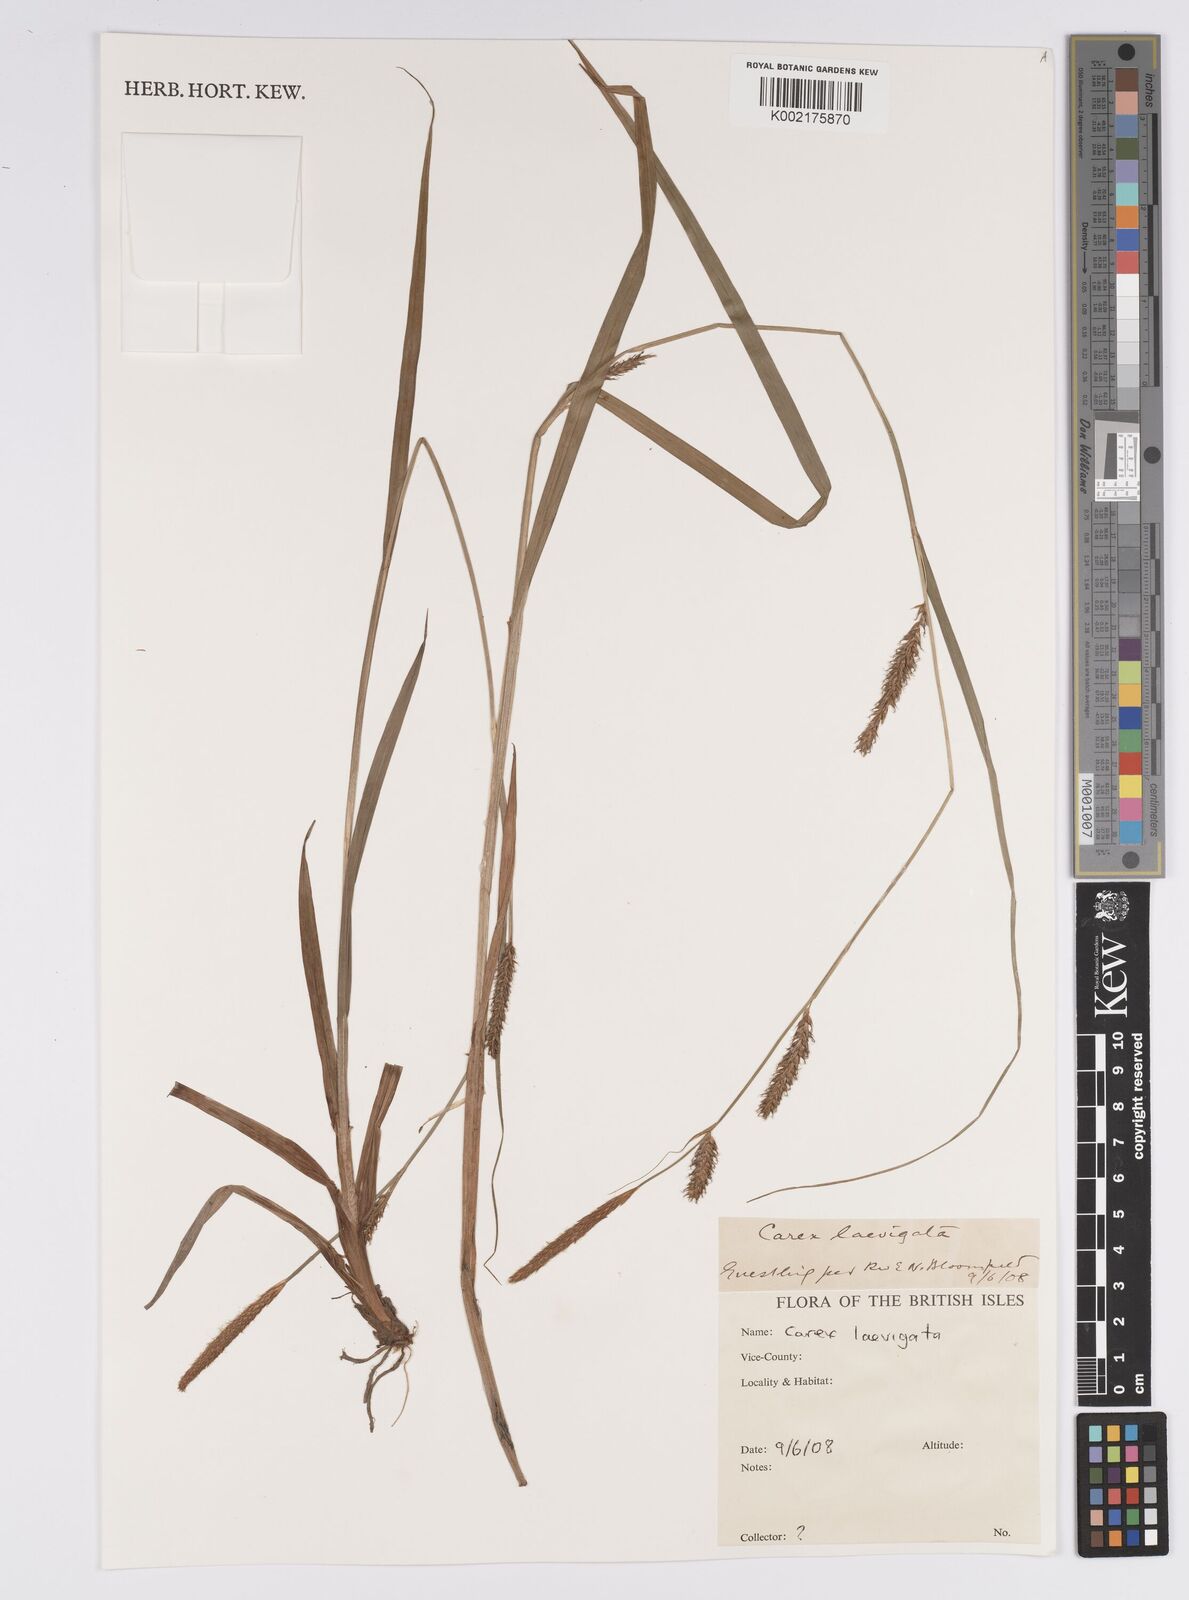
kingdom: Plantae
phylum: Tracheophyta
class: Liliopsida
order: Poales
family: Cyperaceae
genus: Carex
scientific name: Carex laevigata
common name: Smooth-stalked sedge
